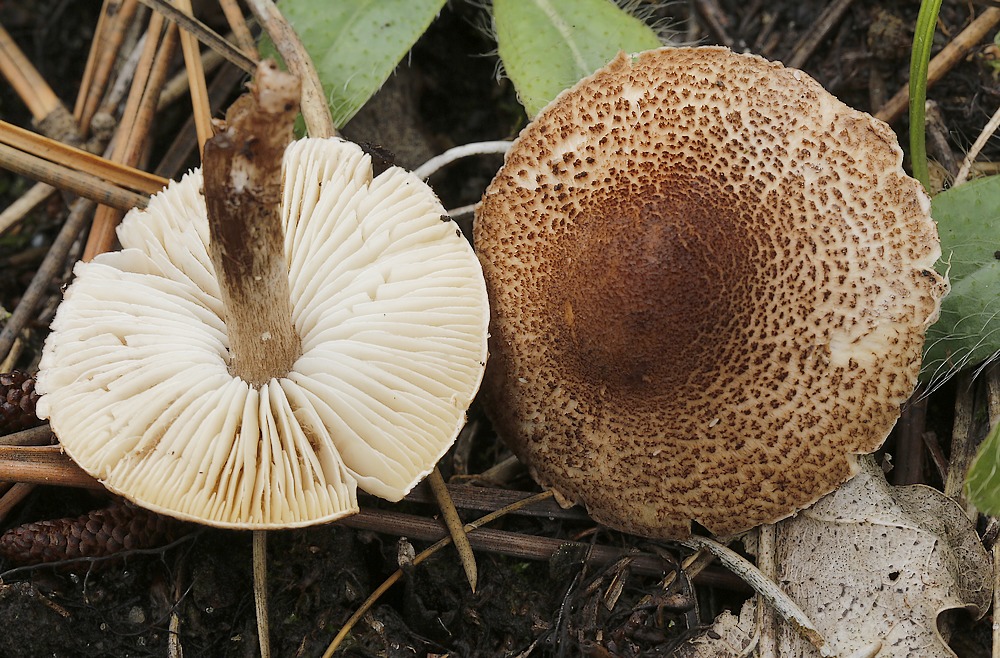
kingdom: Fungi
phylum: Basidiomycota
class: Agaricomycetes
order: Agaricales
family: Agaricaceae
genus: Lepiota
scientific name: Lepiota
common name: parasolhat
